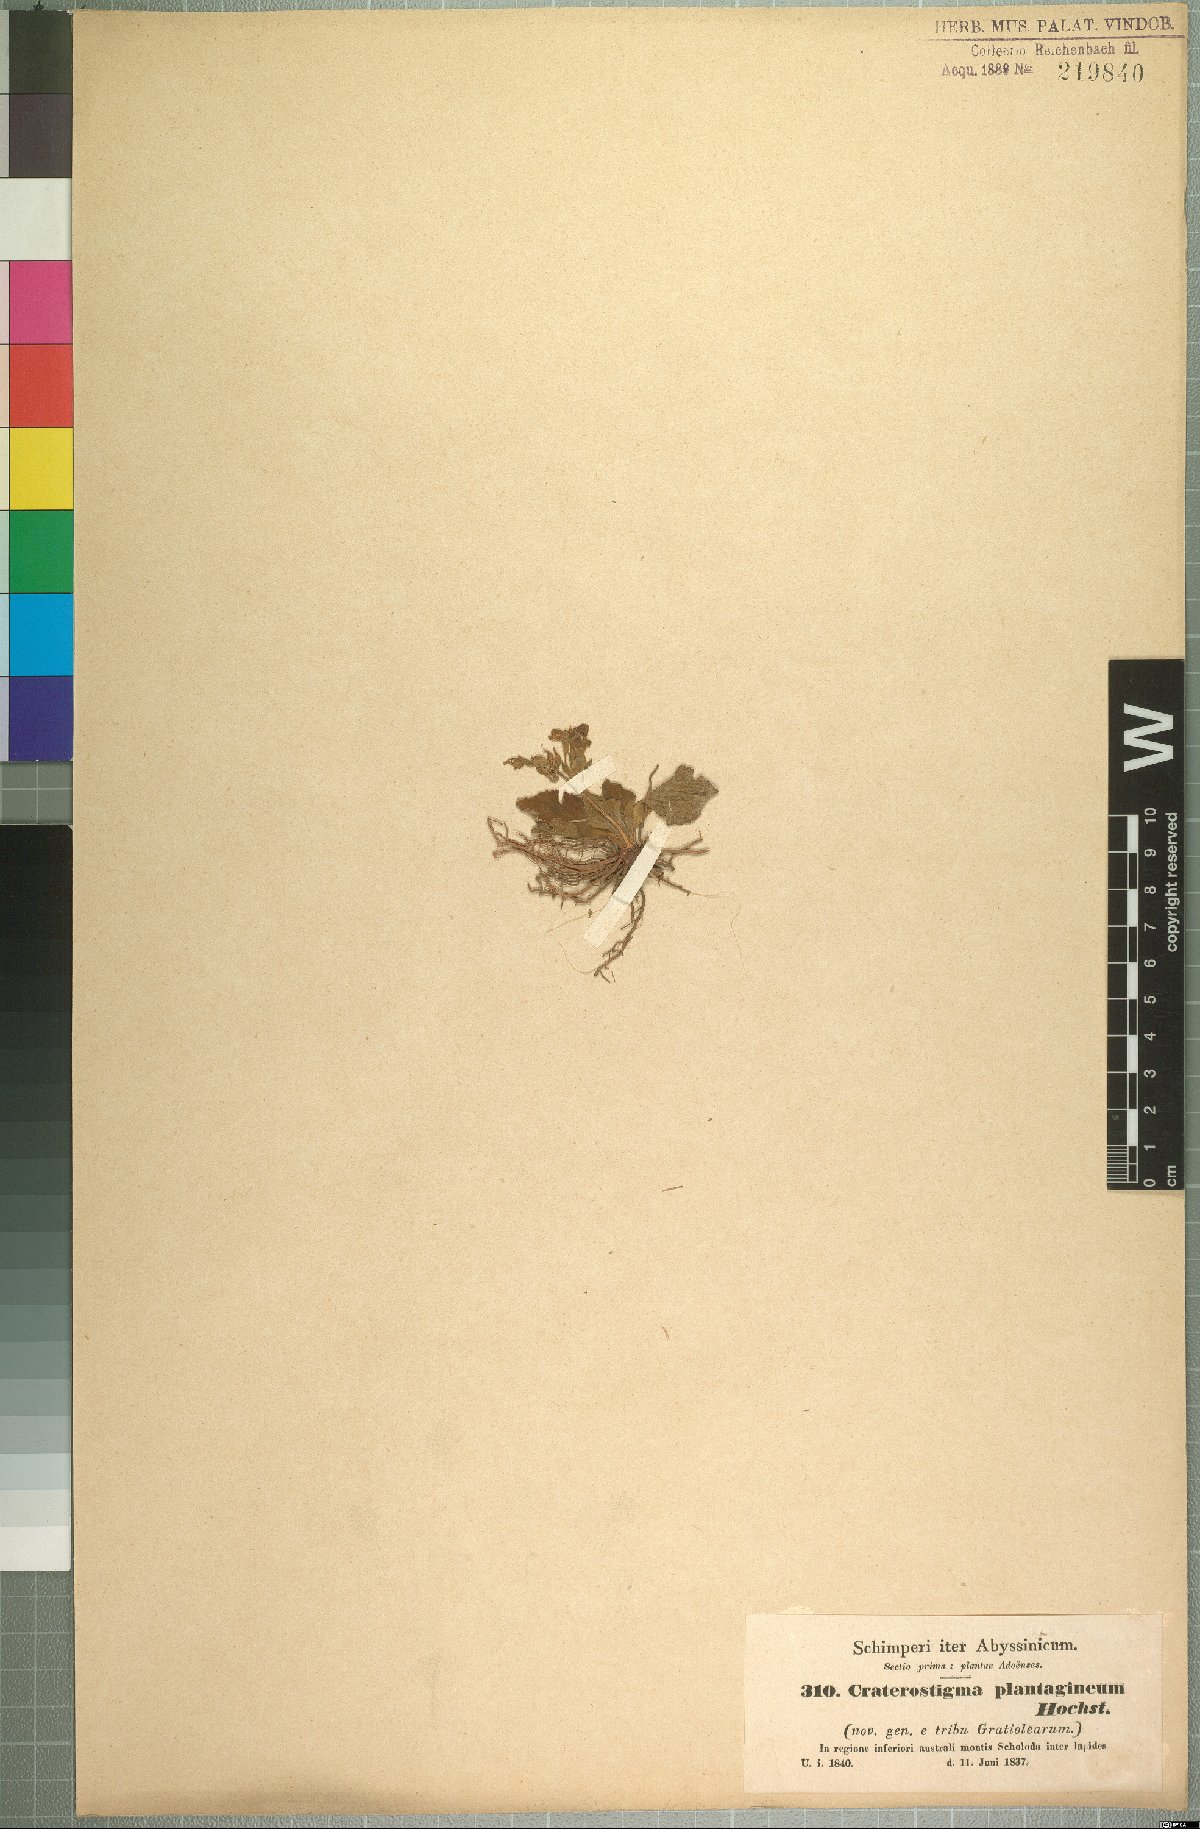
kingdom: Plantae
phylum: Tracheophyta
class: Magnoliopsida
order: Lamiales
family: Linderniaceae
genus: Craterostigma
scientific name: Craterostigma plantagineum
